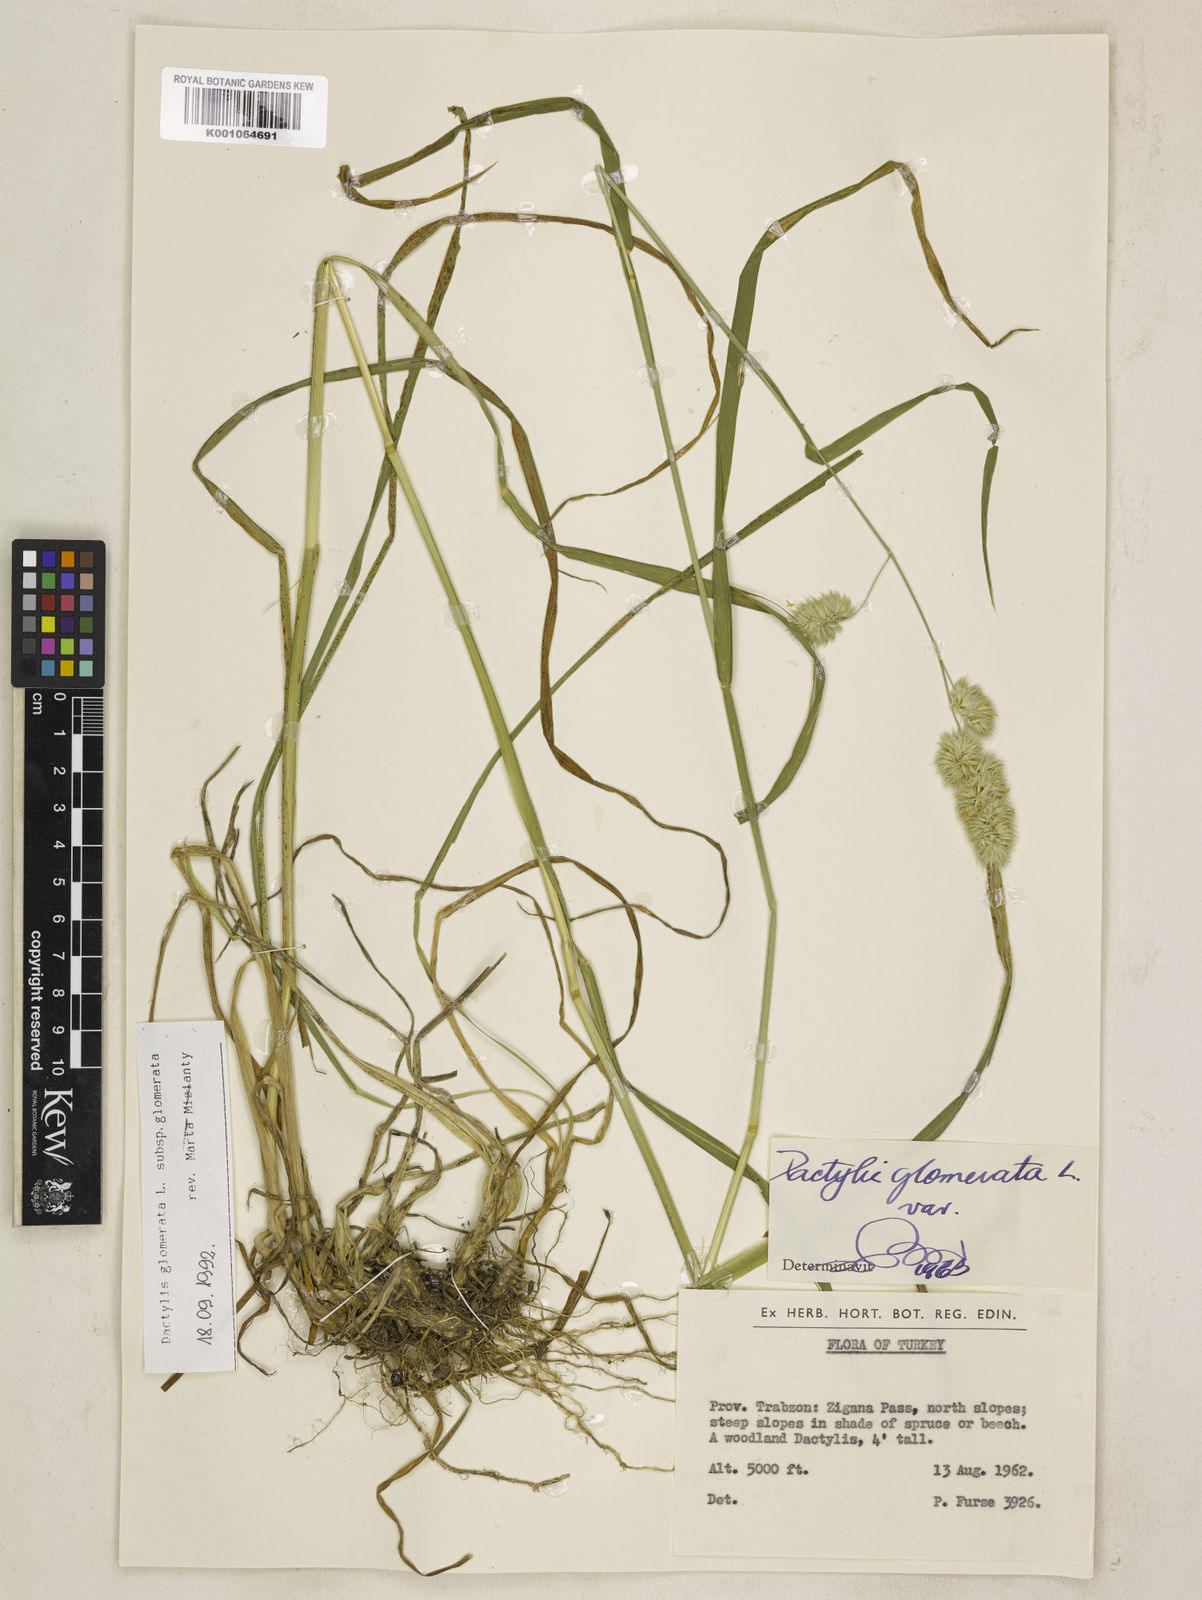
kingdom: Plantae
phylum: Tracheophyta
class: Liliopsida
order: Poales
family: Poaceae
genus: Dactylis
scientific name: Dactylis glomerata
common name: Orchardgrass
